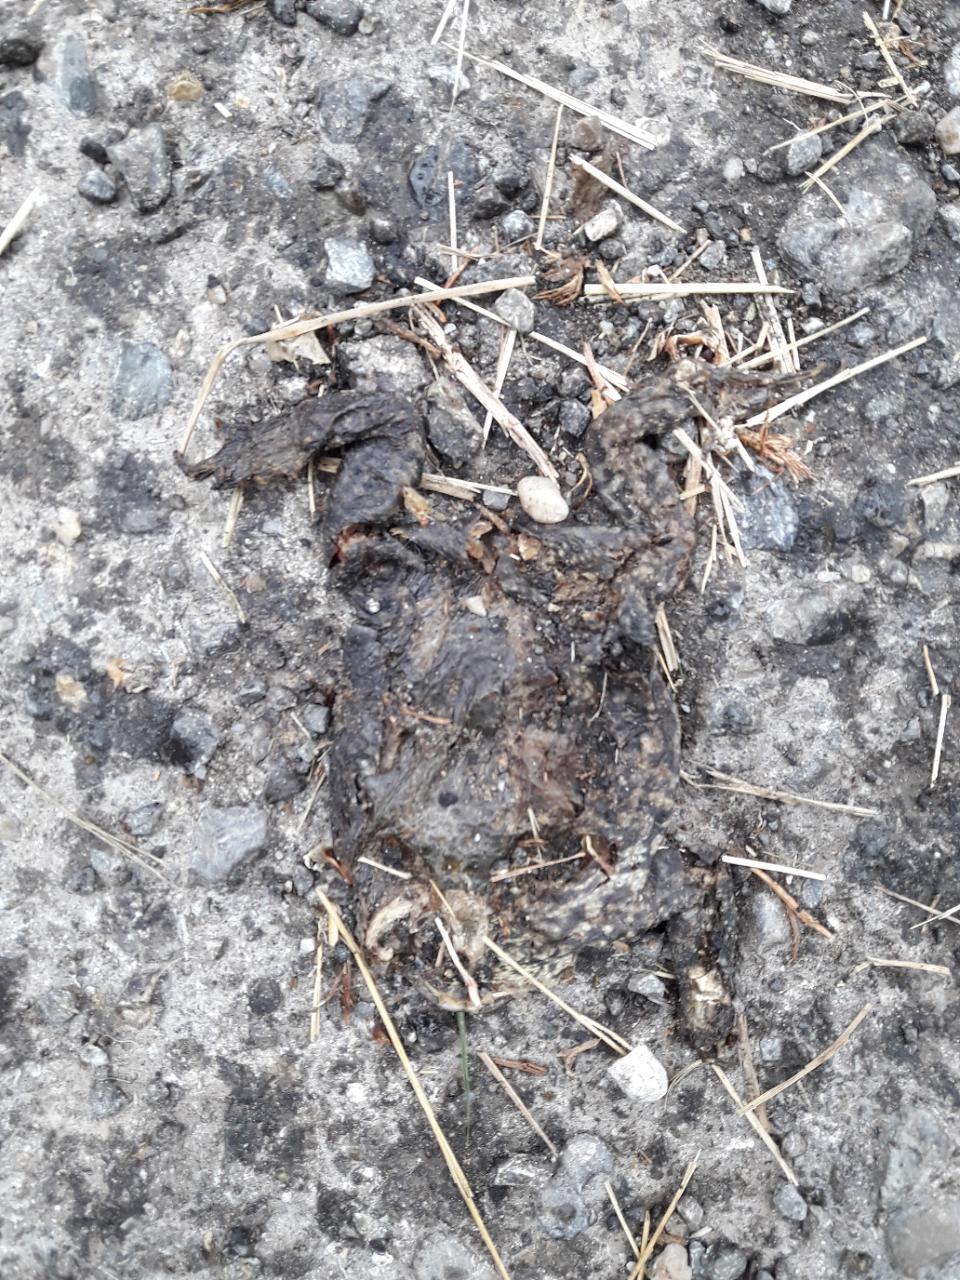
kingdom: Animalia
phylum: Chordata
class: Amphibia
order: Anura
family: Bufonidae
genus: Bufo
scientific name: Bufo bufo
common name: Common toad
